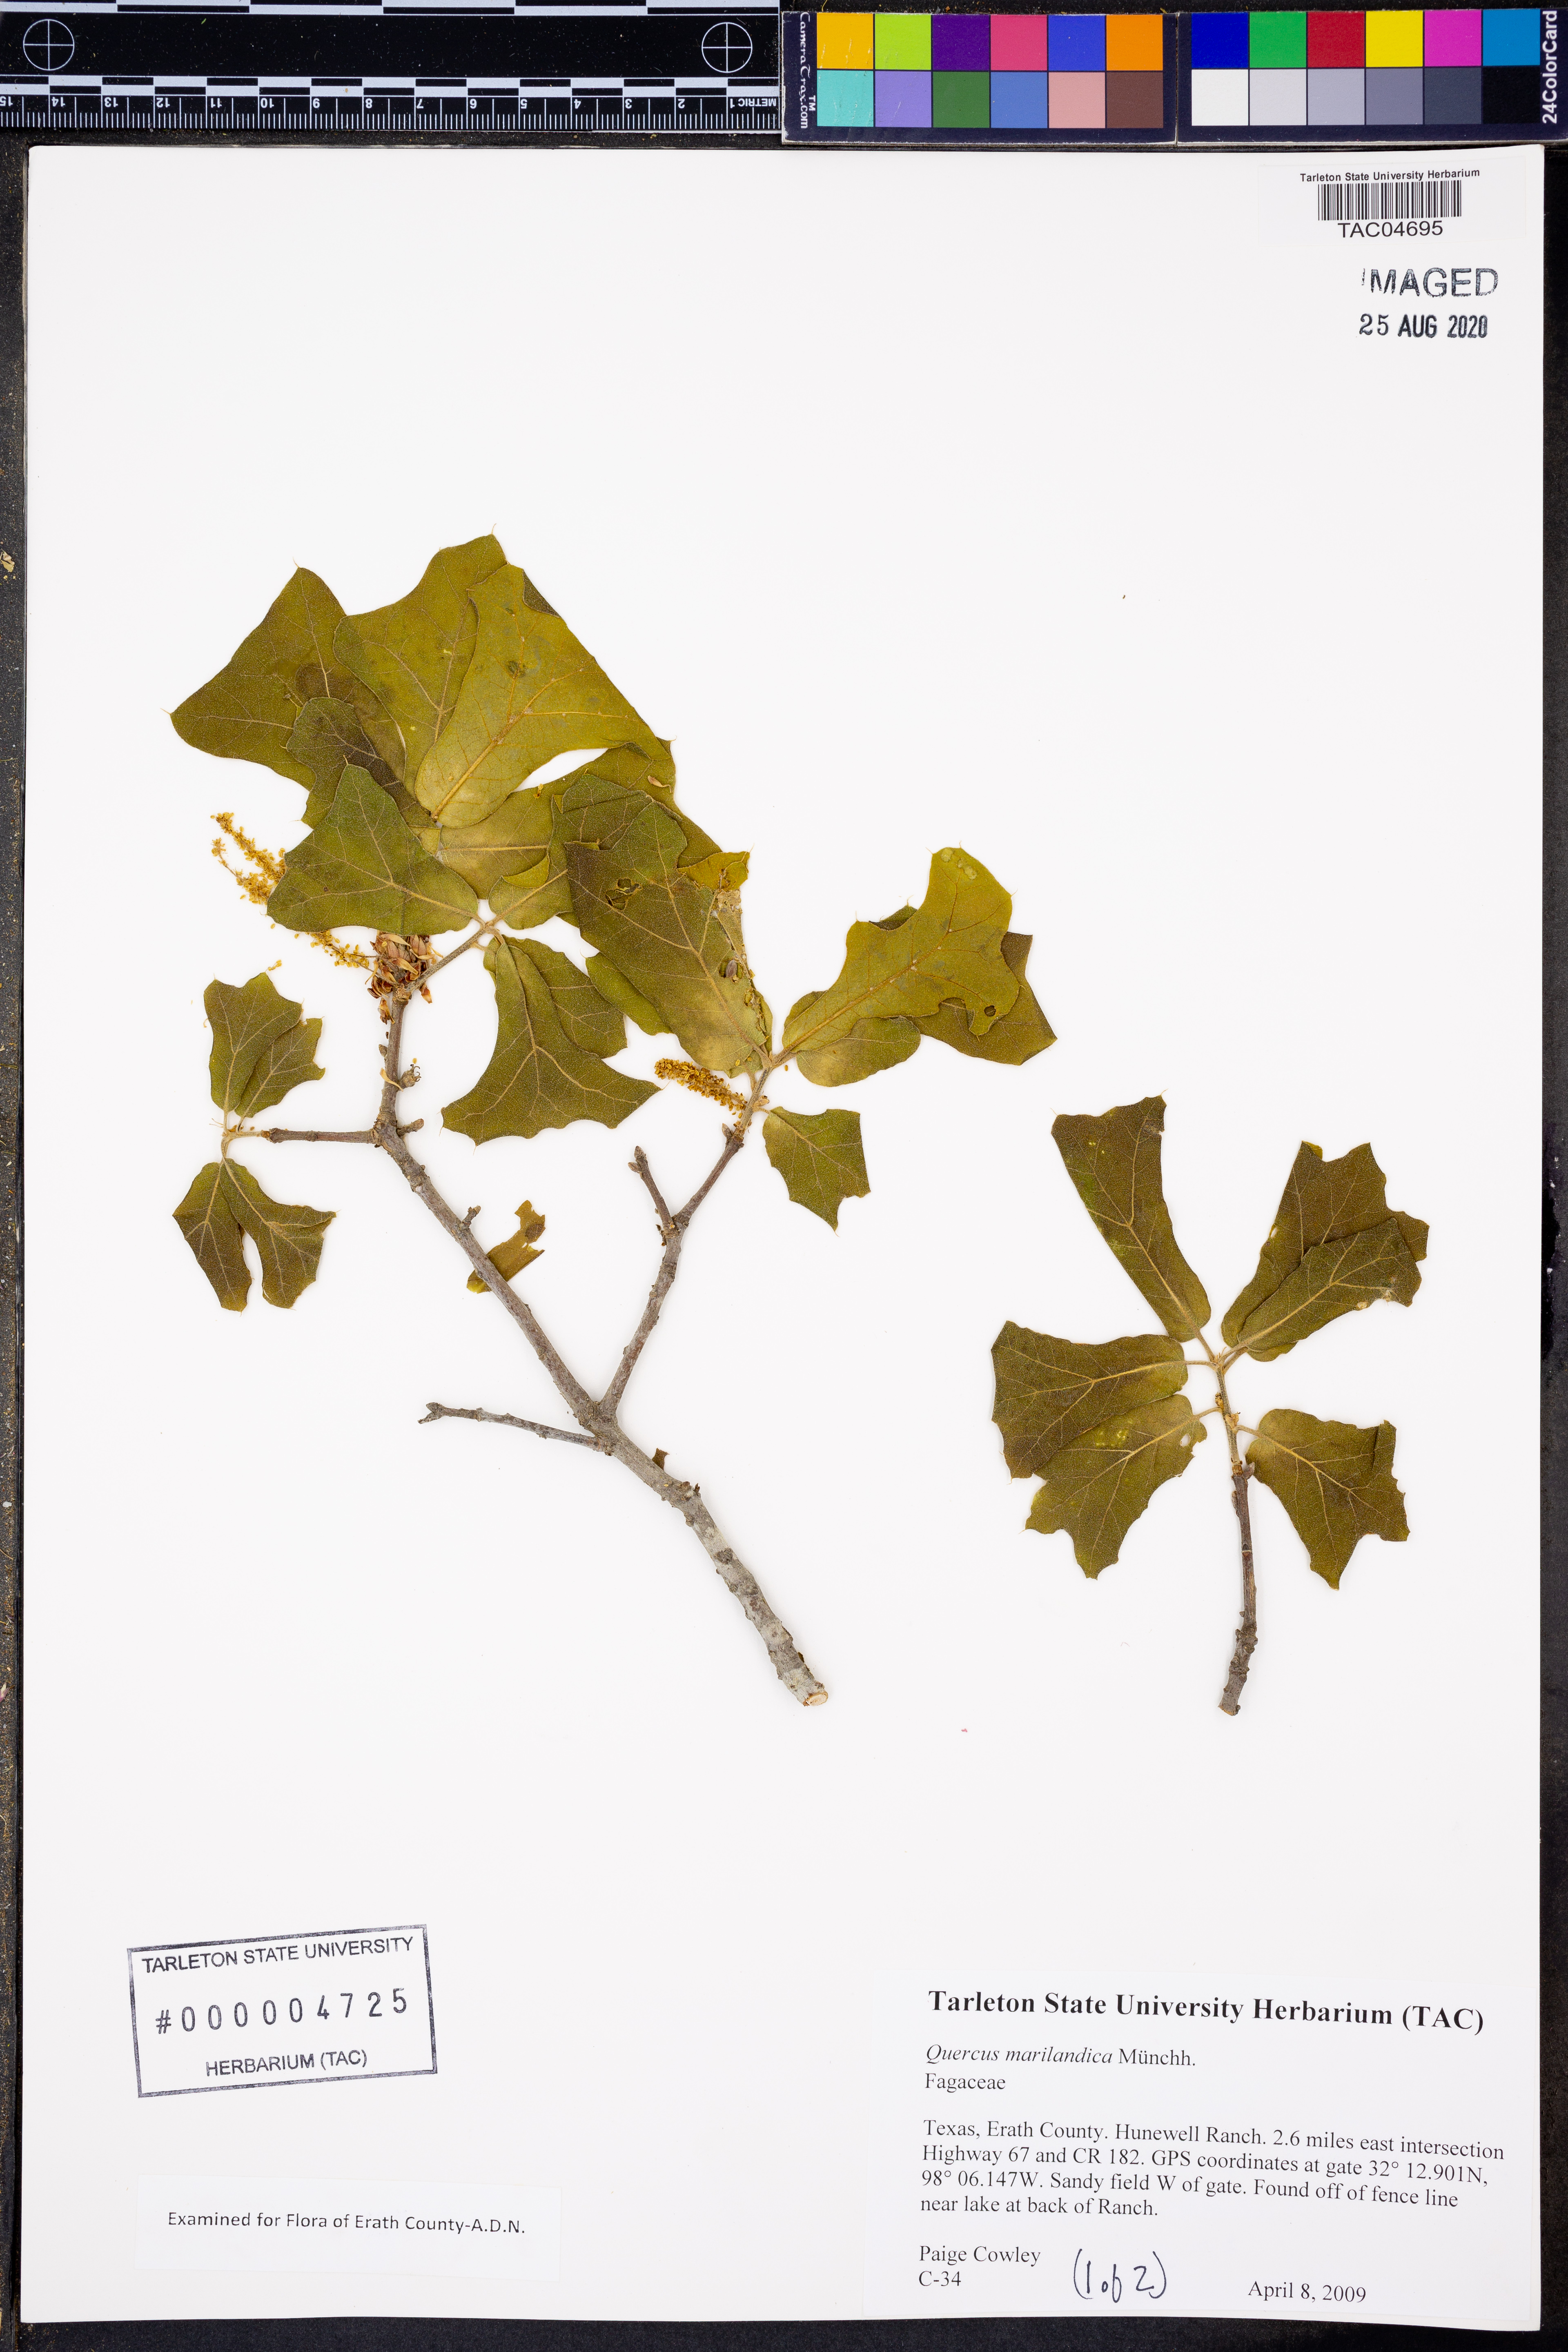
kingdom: Plantae
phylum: Tracheophyta
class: Magnoliopsida
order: Fagales
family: Fagaceae
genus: Quercus
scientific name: Quercus marilandica
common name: Blackjack oak
